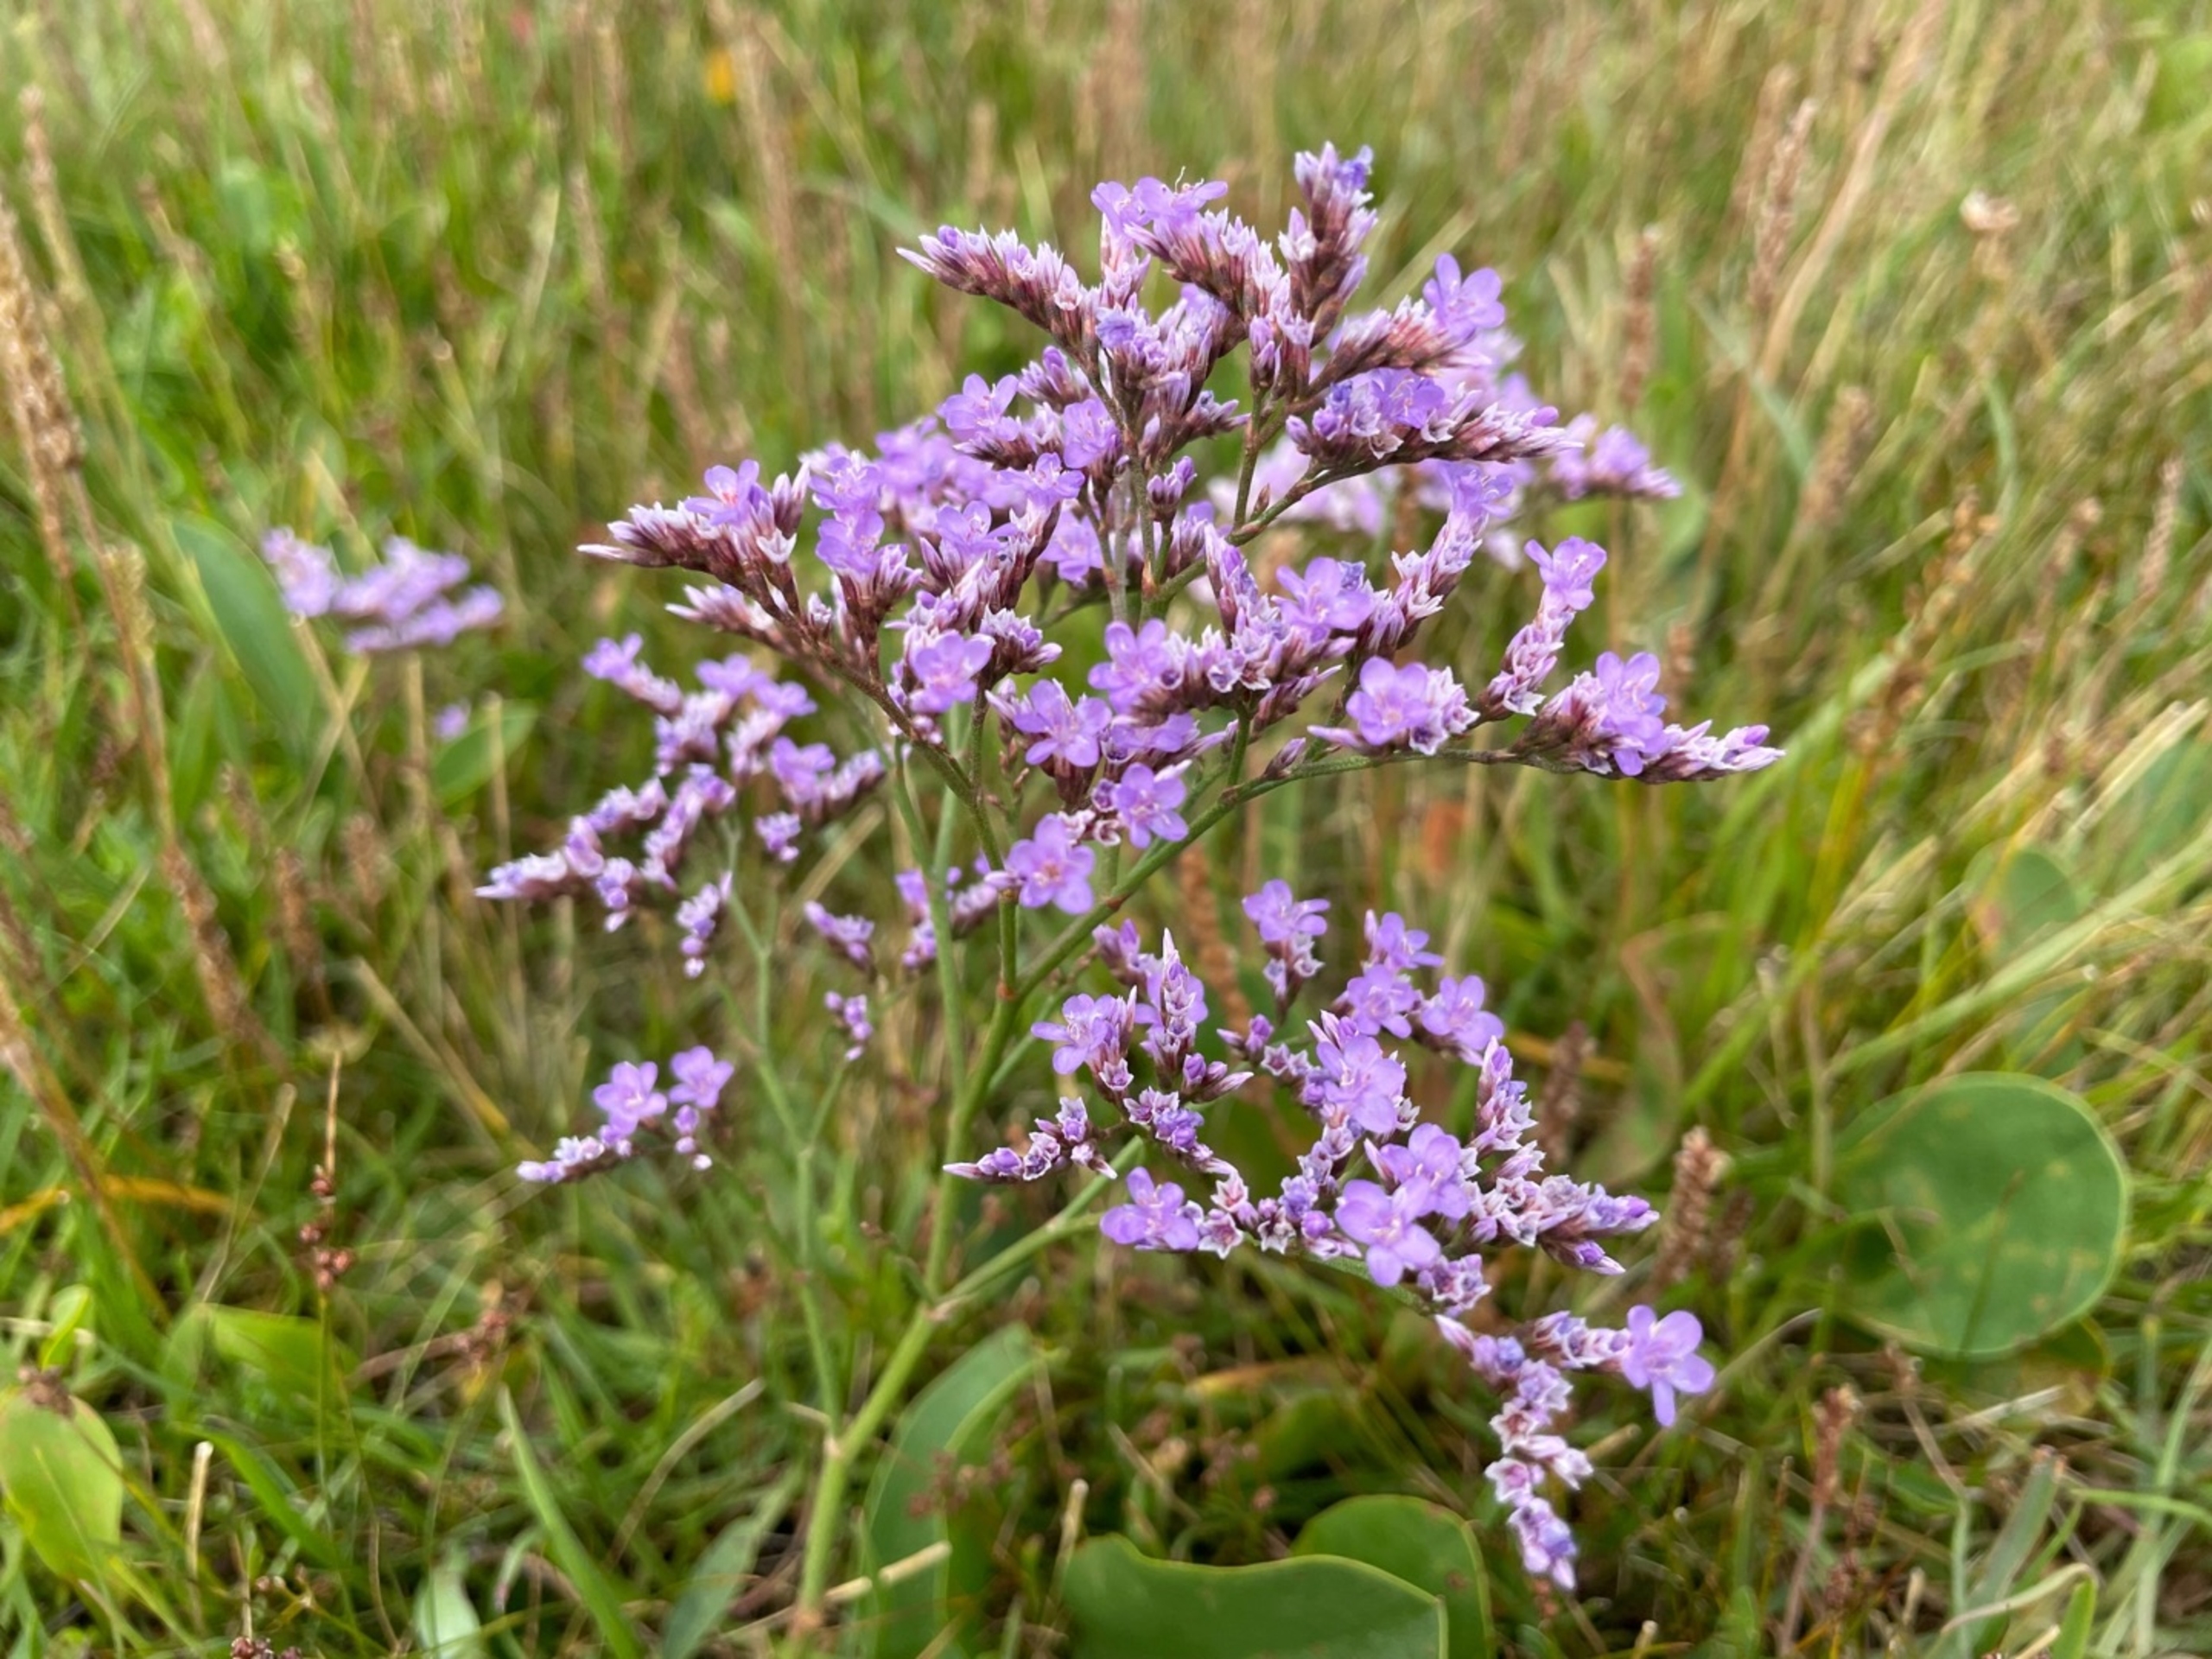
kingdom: Plantae
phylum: Tracheophyta
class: Magnoliopsida
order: Caryophyllales
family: Plumbaginaceae
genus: Limonium
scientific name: Limonium vulgare
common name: Tætblomstret hindebæger
